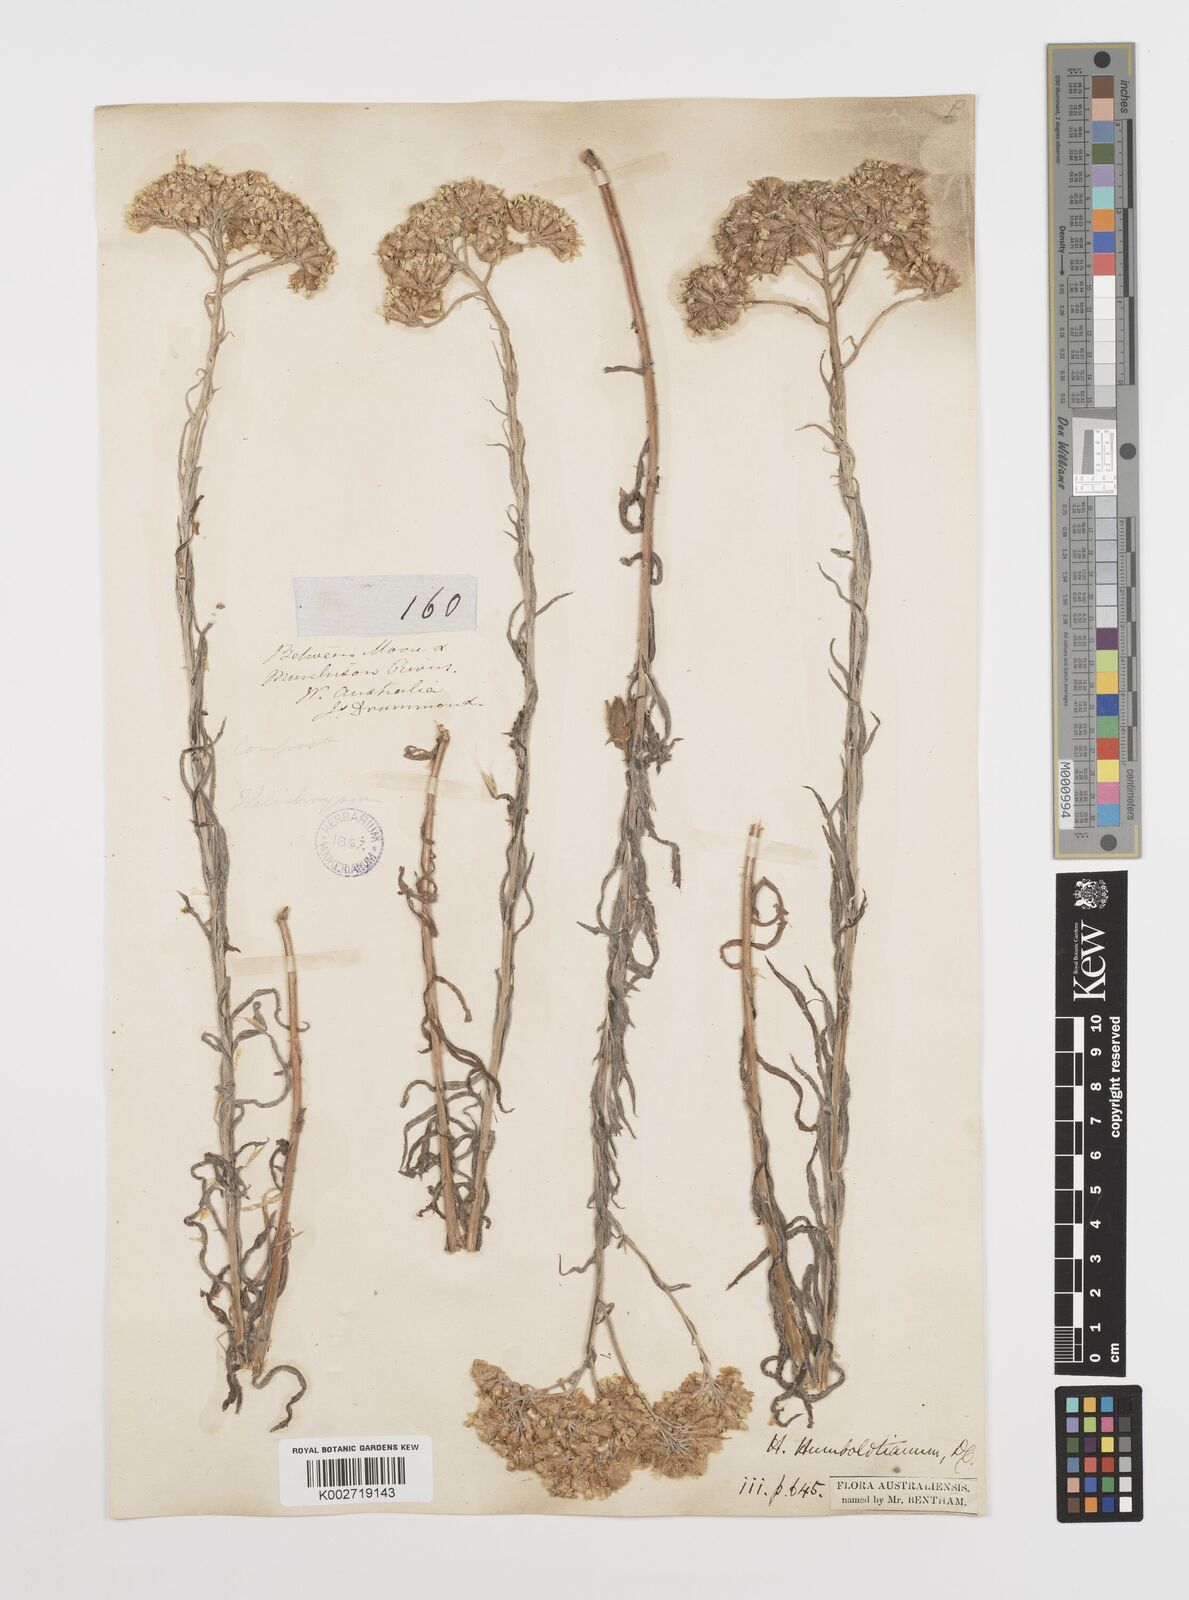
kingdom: Plantae
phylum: Tracheophyta
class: Magnoliopsida
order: Asterales
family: Asteraceae
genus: Rhodanthe
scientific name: Rhodanthe humboldtiana
